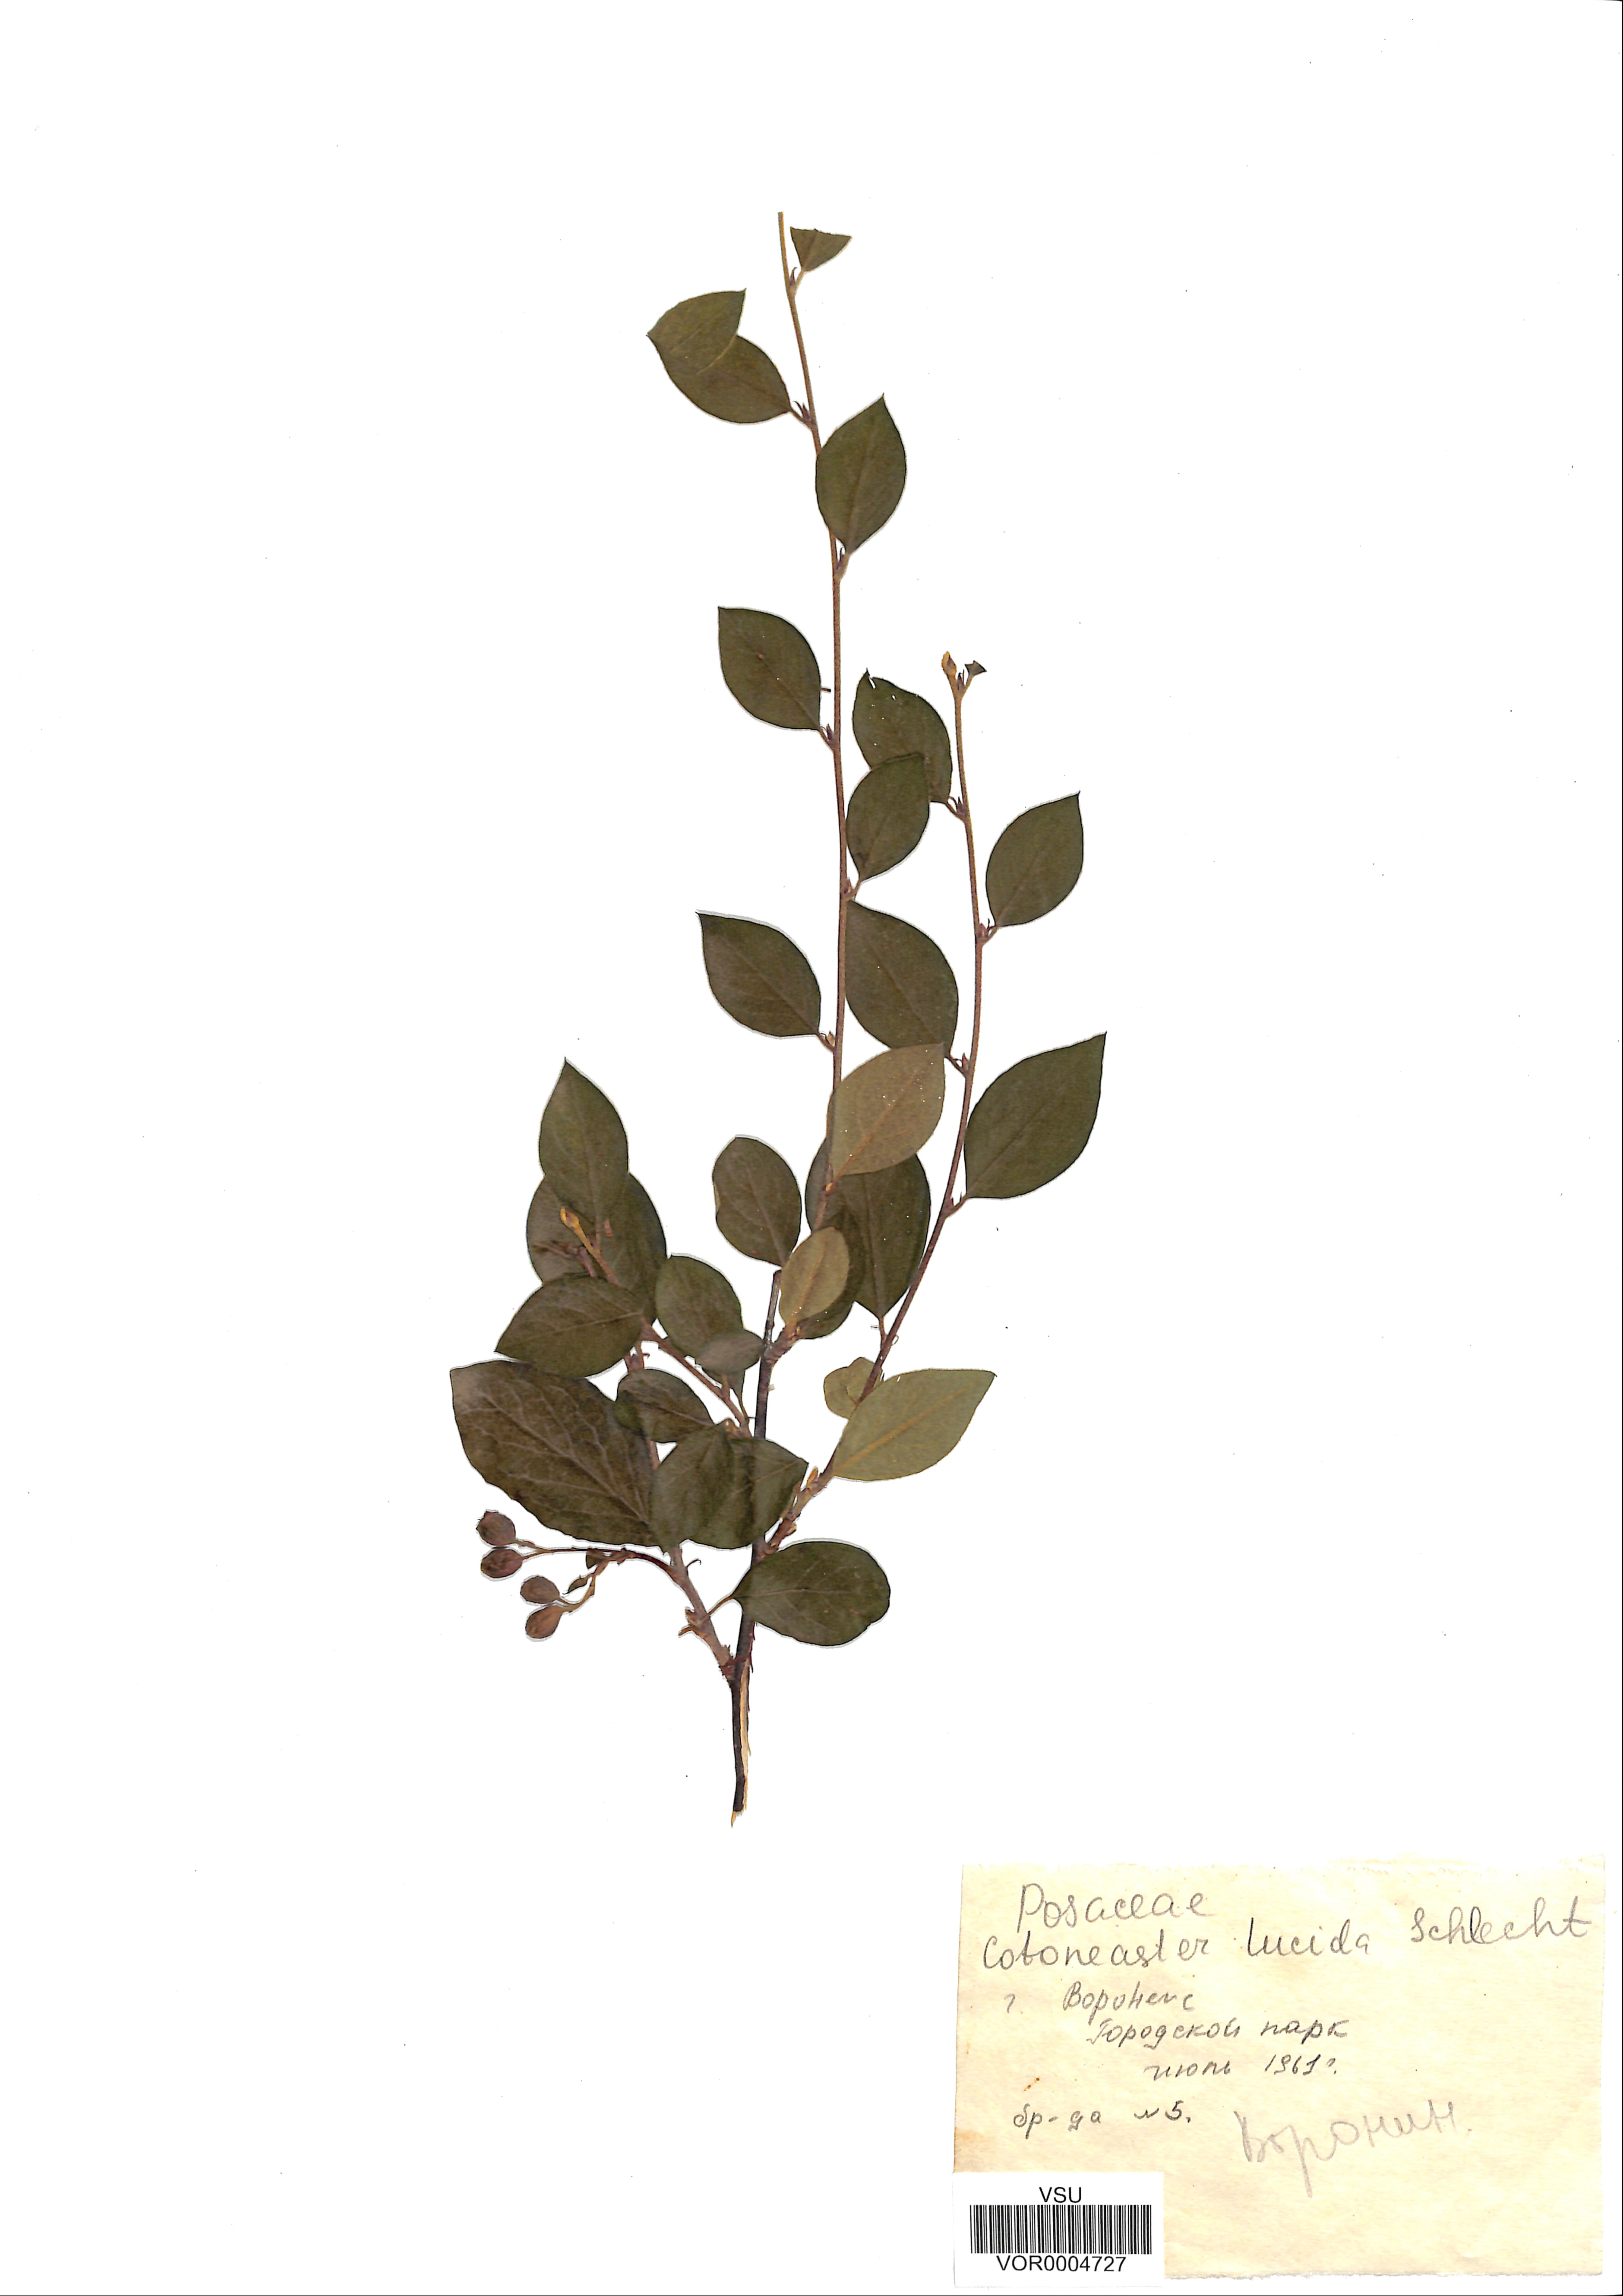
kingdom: Plantae
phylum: Tracheophyta
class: Magnoliopsida
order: Rosales
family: Rosaceae
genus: Cotoneaster
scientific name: Cotoneaster acutifolius
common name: Peking cotoneaster
